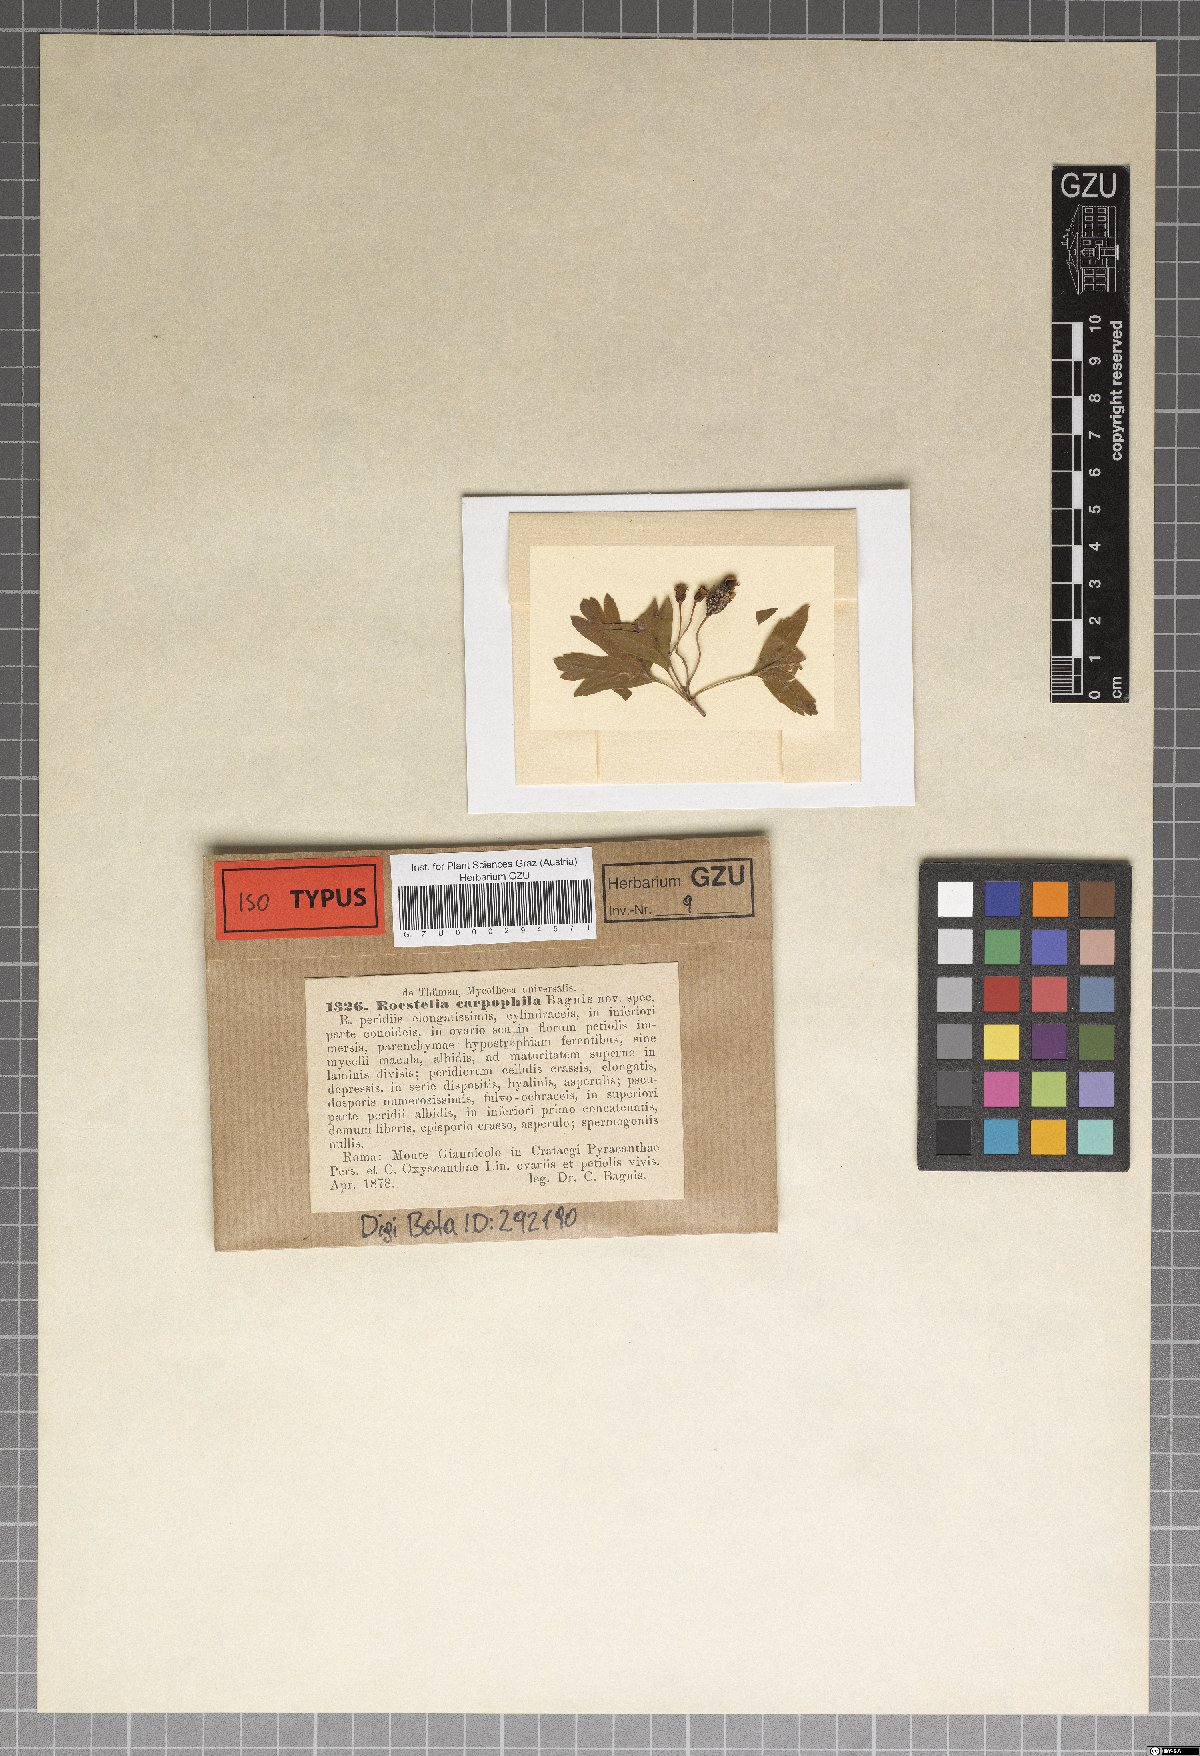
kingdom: Fungi
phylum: Basidiomycota
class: Pucciniomycetes
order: Pucciniales
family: Gymnosporangiaceae
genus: Roestelia
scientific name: Roestelia carpophila
